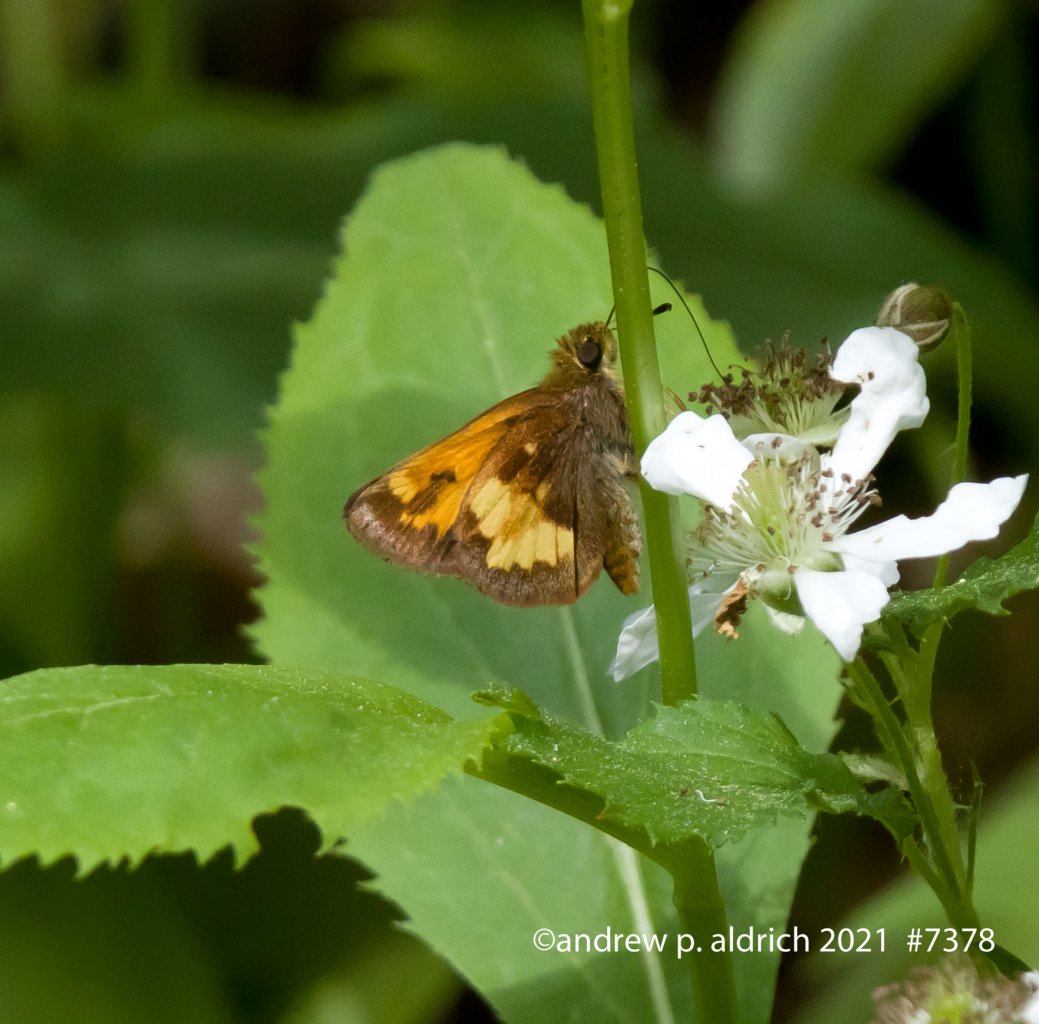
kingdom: Animalia
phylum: Arthropoda
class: Insecta
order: Lepidoptera
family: Hesperiidae
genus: Lon
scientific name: Lon hobomok
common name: Hobomok Skipper
